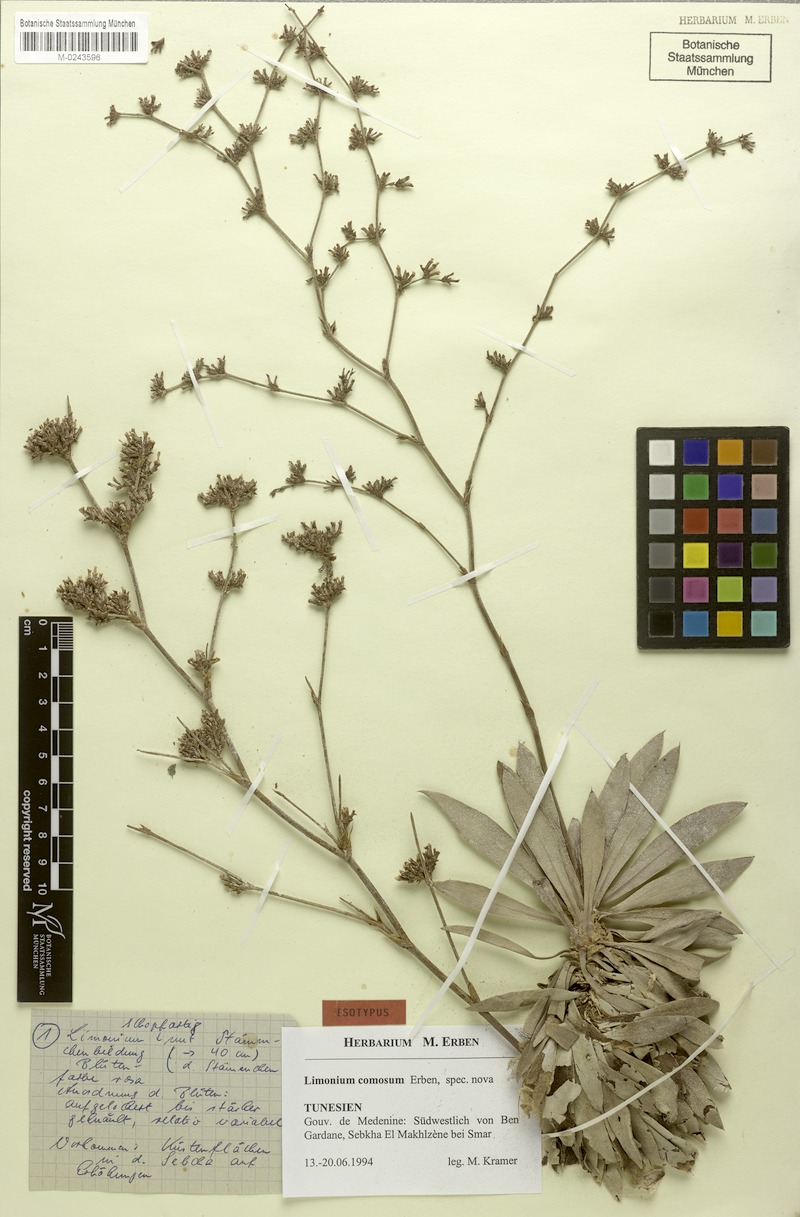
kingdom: Plantae
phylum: Tracheophyta
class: Magnoliopsida
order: Caryophyllales
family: Plumbaginaceae
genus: Limonium
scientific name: Limonium comosum
